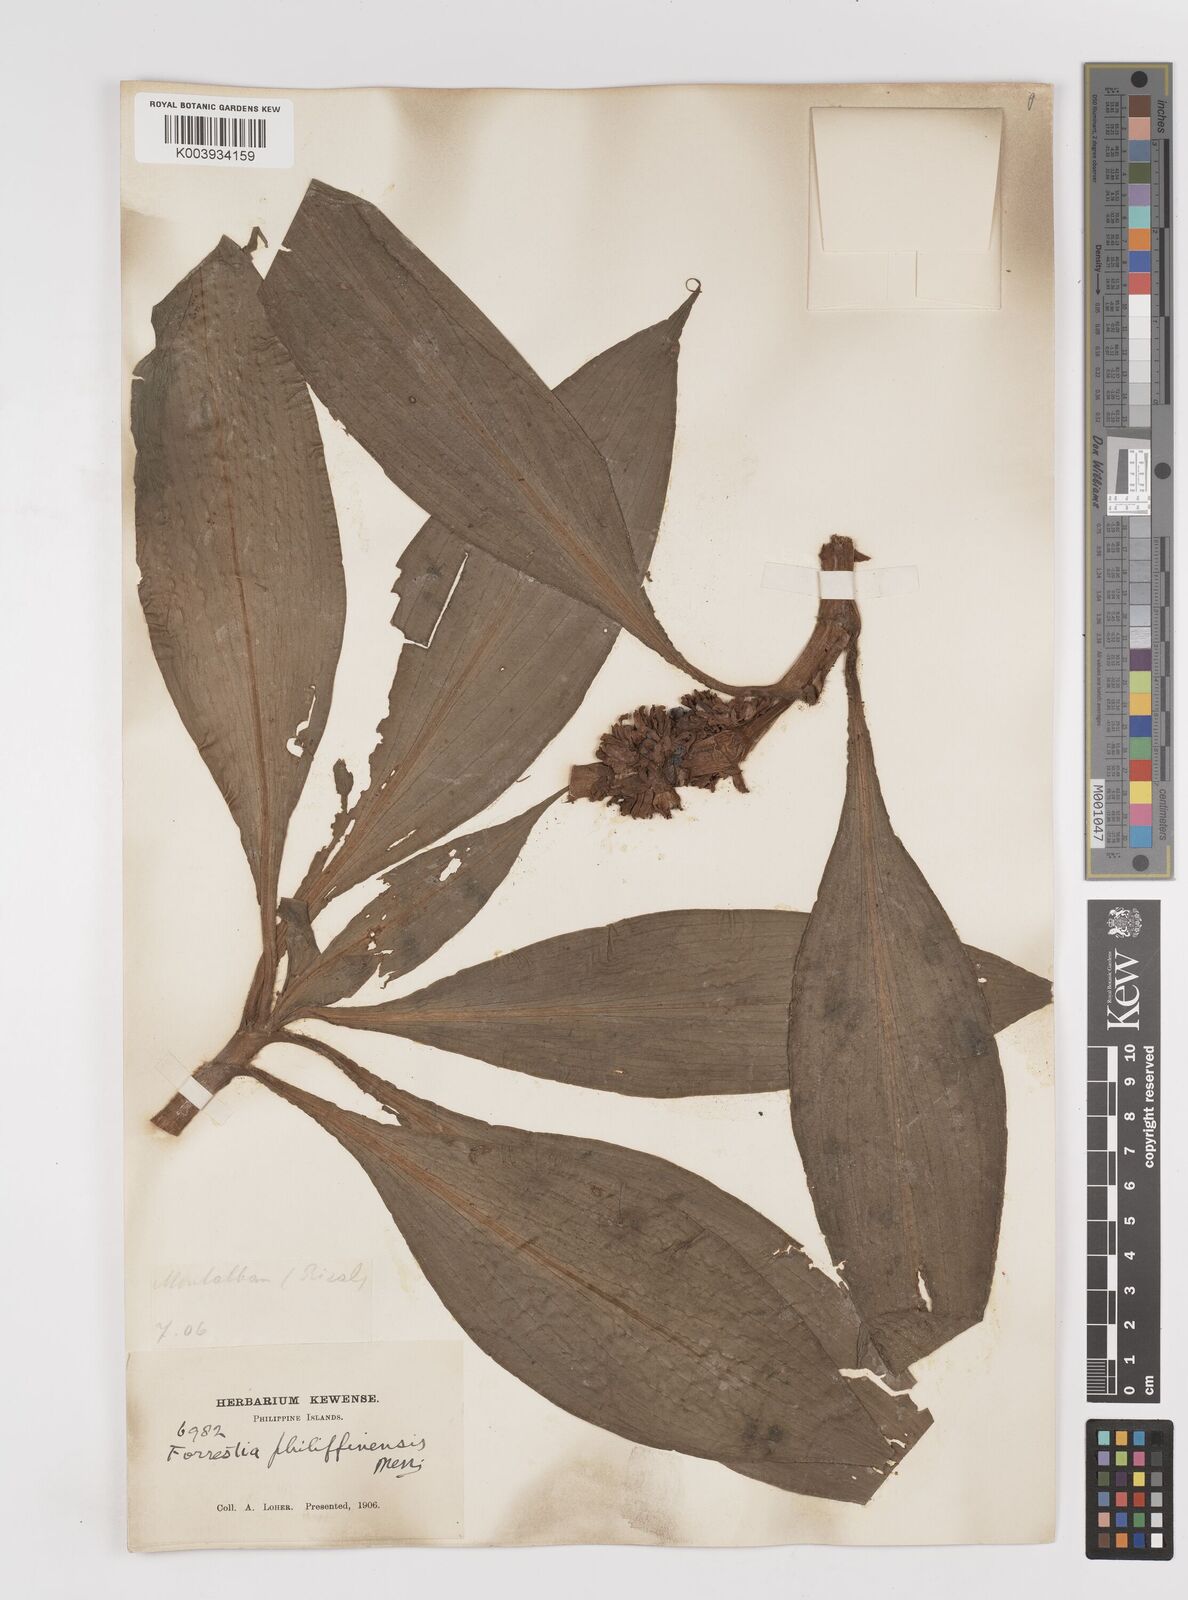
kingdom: Plantae
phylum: Tracheophyta
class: Liliopsida
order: Commelinales
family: Commelinaceae
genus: Amischotolype
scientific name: Amischotolype
